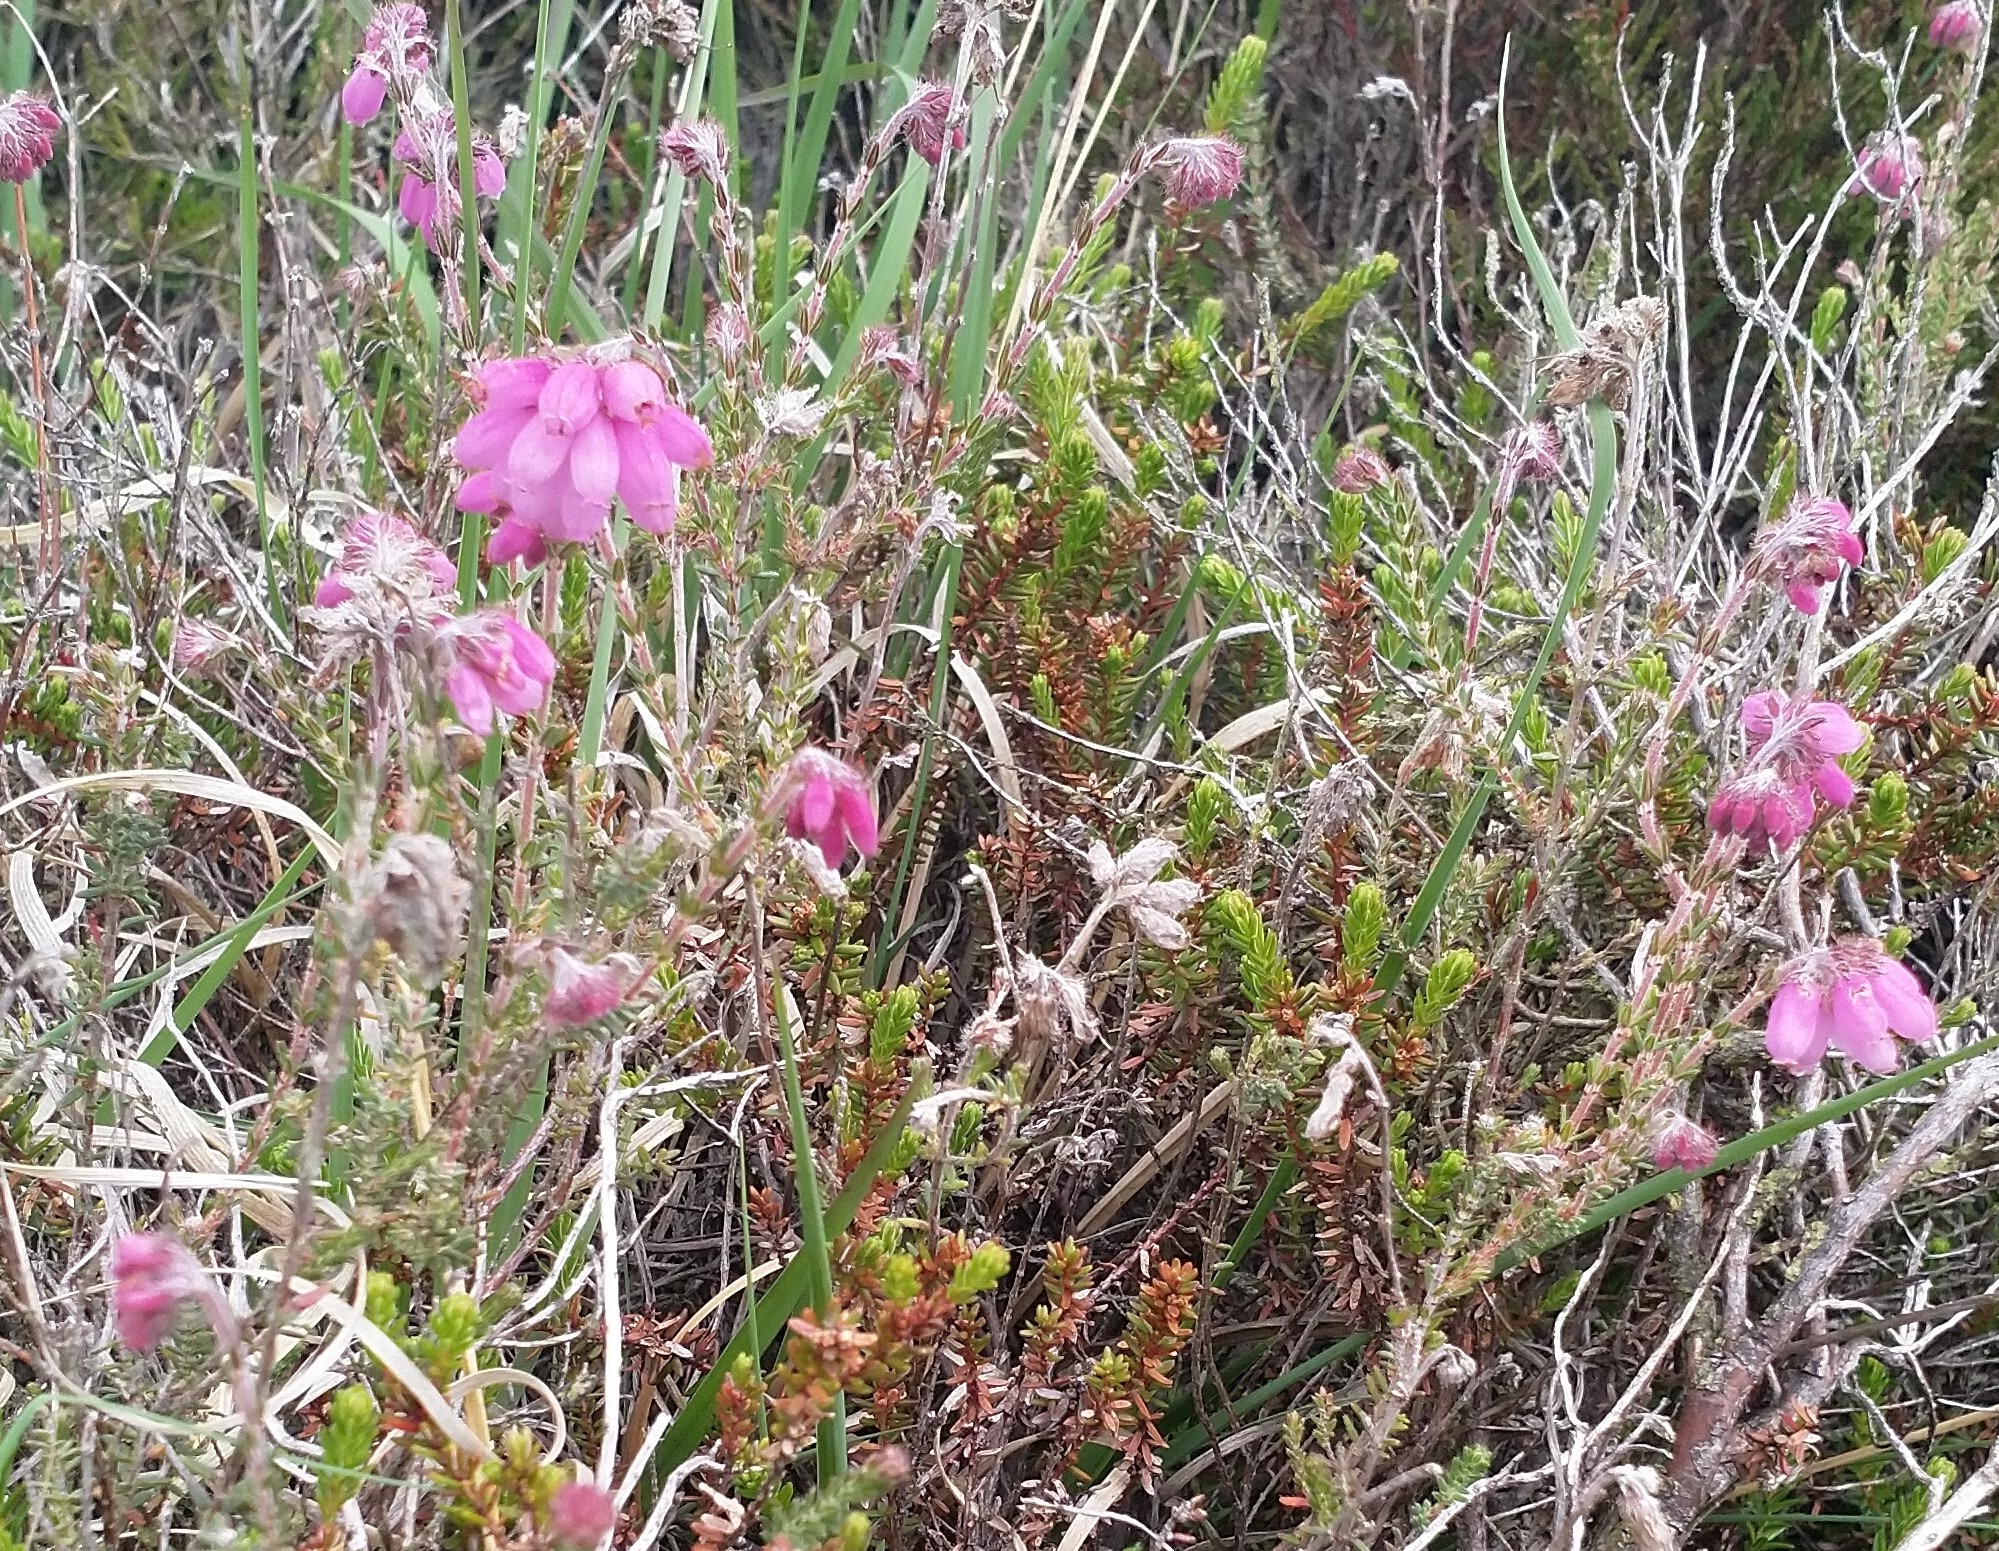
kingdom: Plantae
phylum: Tracheophyta
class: Magnoliopsida
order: Ericales
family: Ericaceae
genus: Erica
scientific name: Erica tetralix
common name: Klokkelyng
